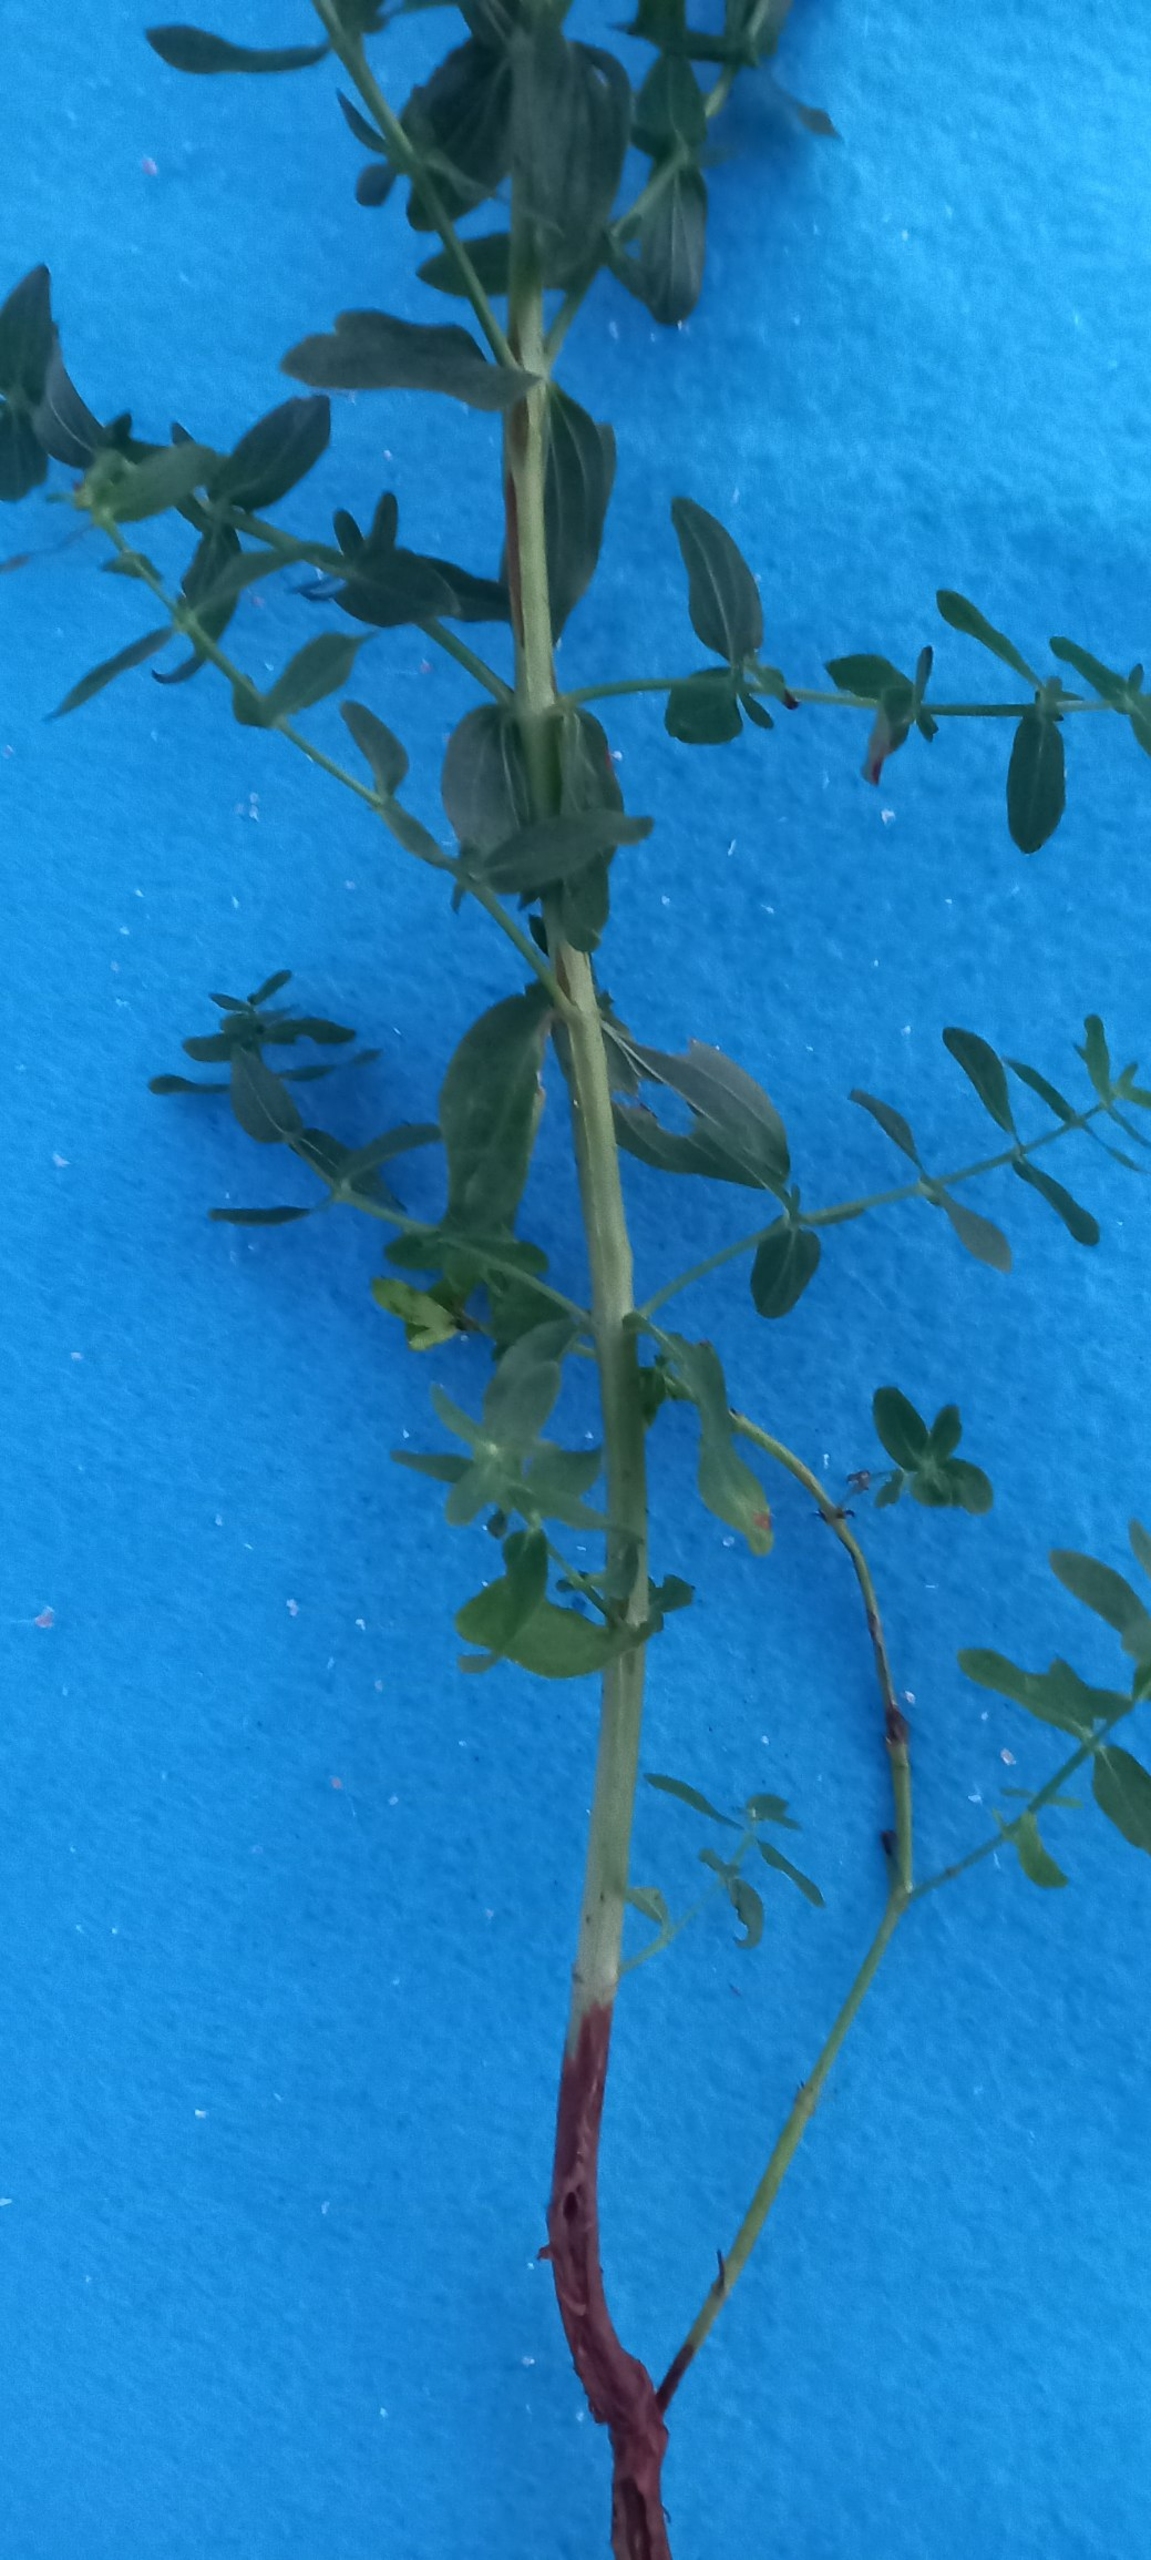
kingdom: Plantae
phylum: Tracheophyta
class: Magnoliopsida
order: Malpighiales
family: Hypericaceae
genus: Hypericum
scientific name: Hypericum perforatum
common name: Prikbladet perikon
